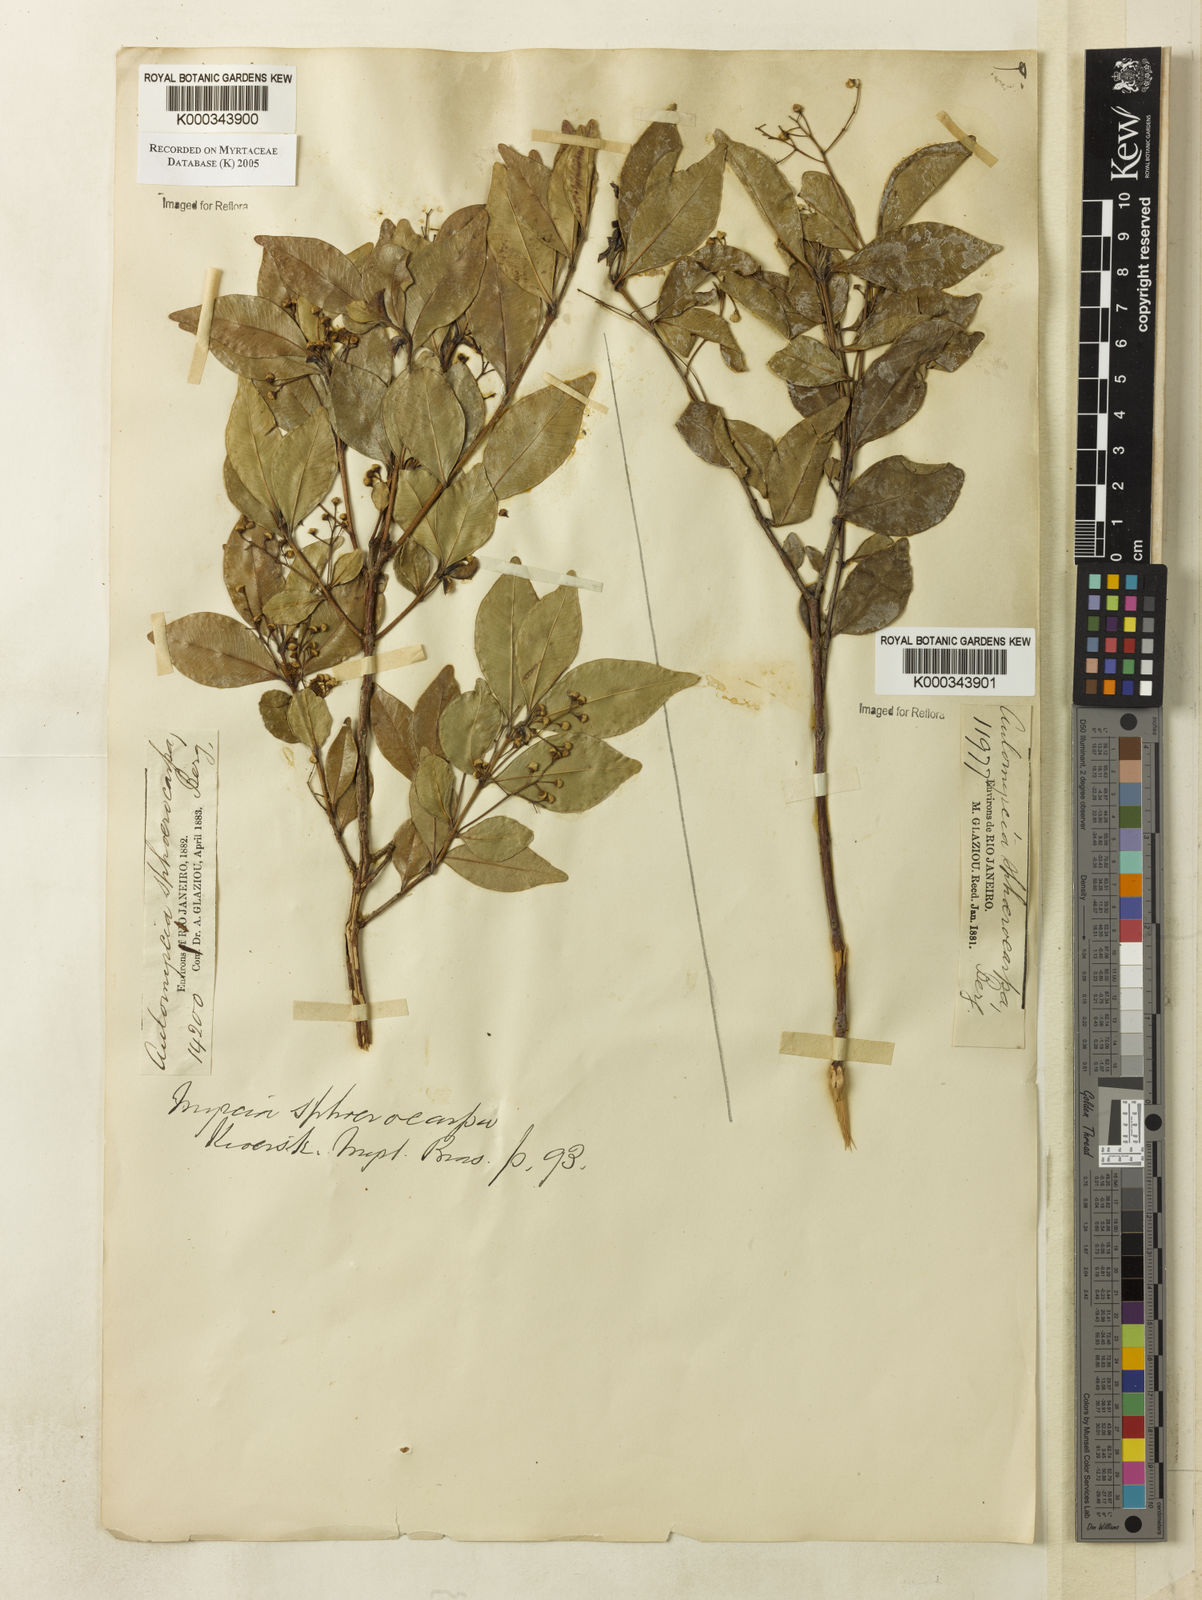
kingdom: Plantae
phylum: Tracheophyta
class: Magnoliopsida
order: Myrtales
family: Myrtaceae
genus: Myrcia
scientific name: Myrcia multiflora
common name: Pedra hume
